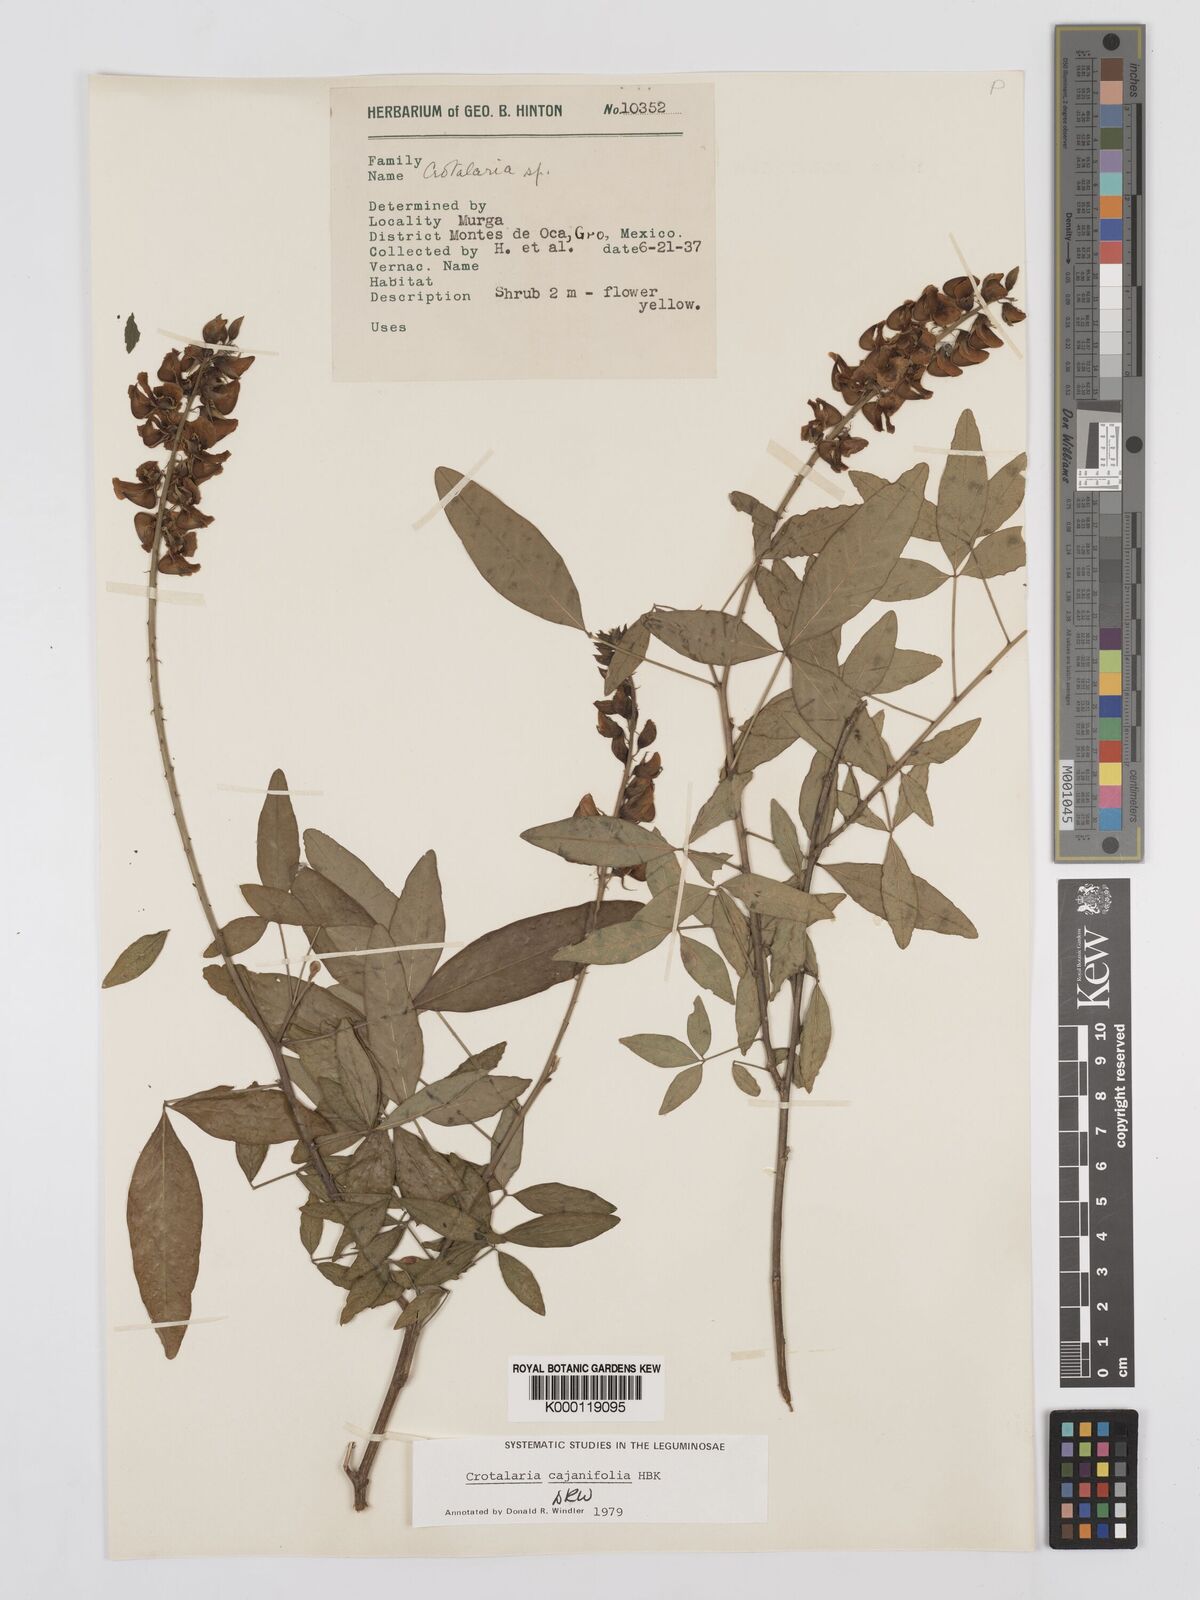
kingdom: Plantae
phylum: Tracheophyta
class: Magnoliopsida
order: Fabales
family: Fabaceae
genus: Crotalaria
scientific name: Crotalaria cajanifolia
